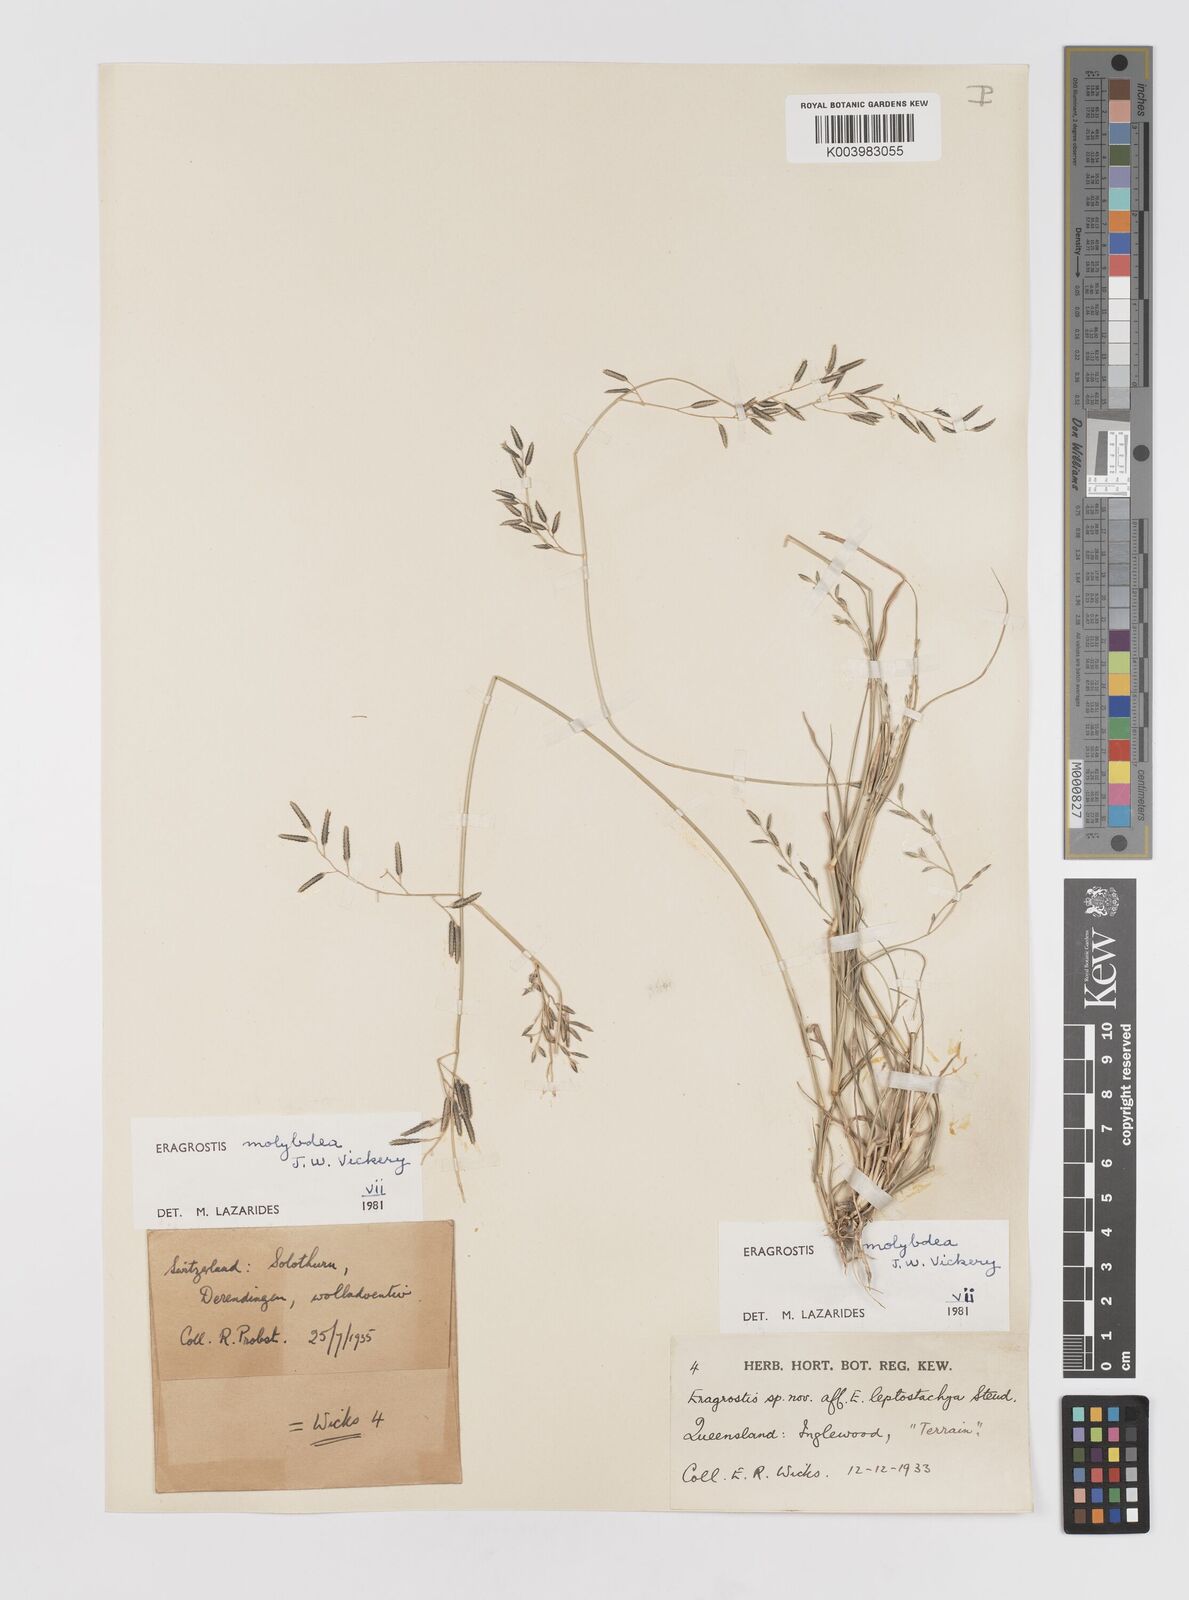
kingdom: Plantae
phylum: Tracheophyta
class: Liliopsida
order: Poales
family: Poaceae
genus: Eragrostis
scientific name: Eragrostis leptostachya
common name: Australian lovegrass
